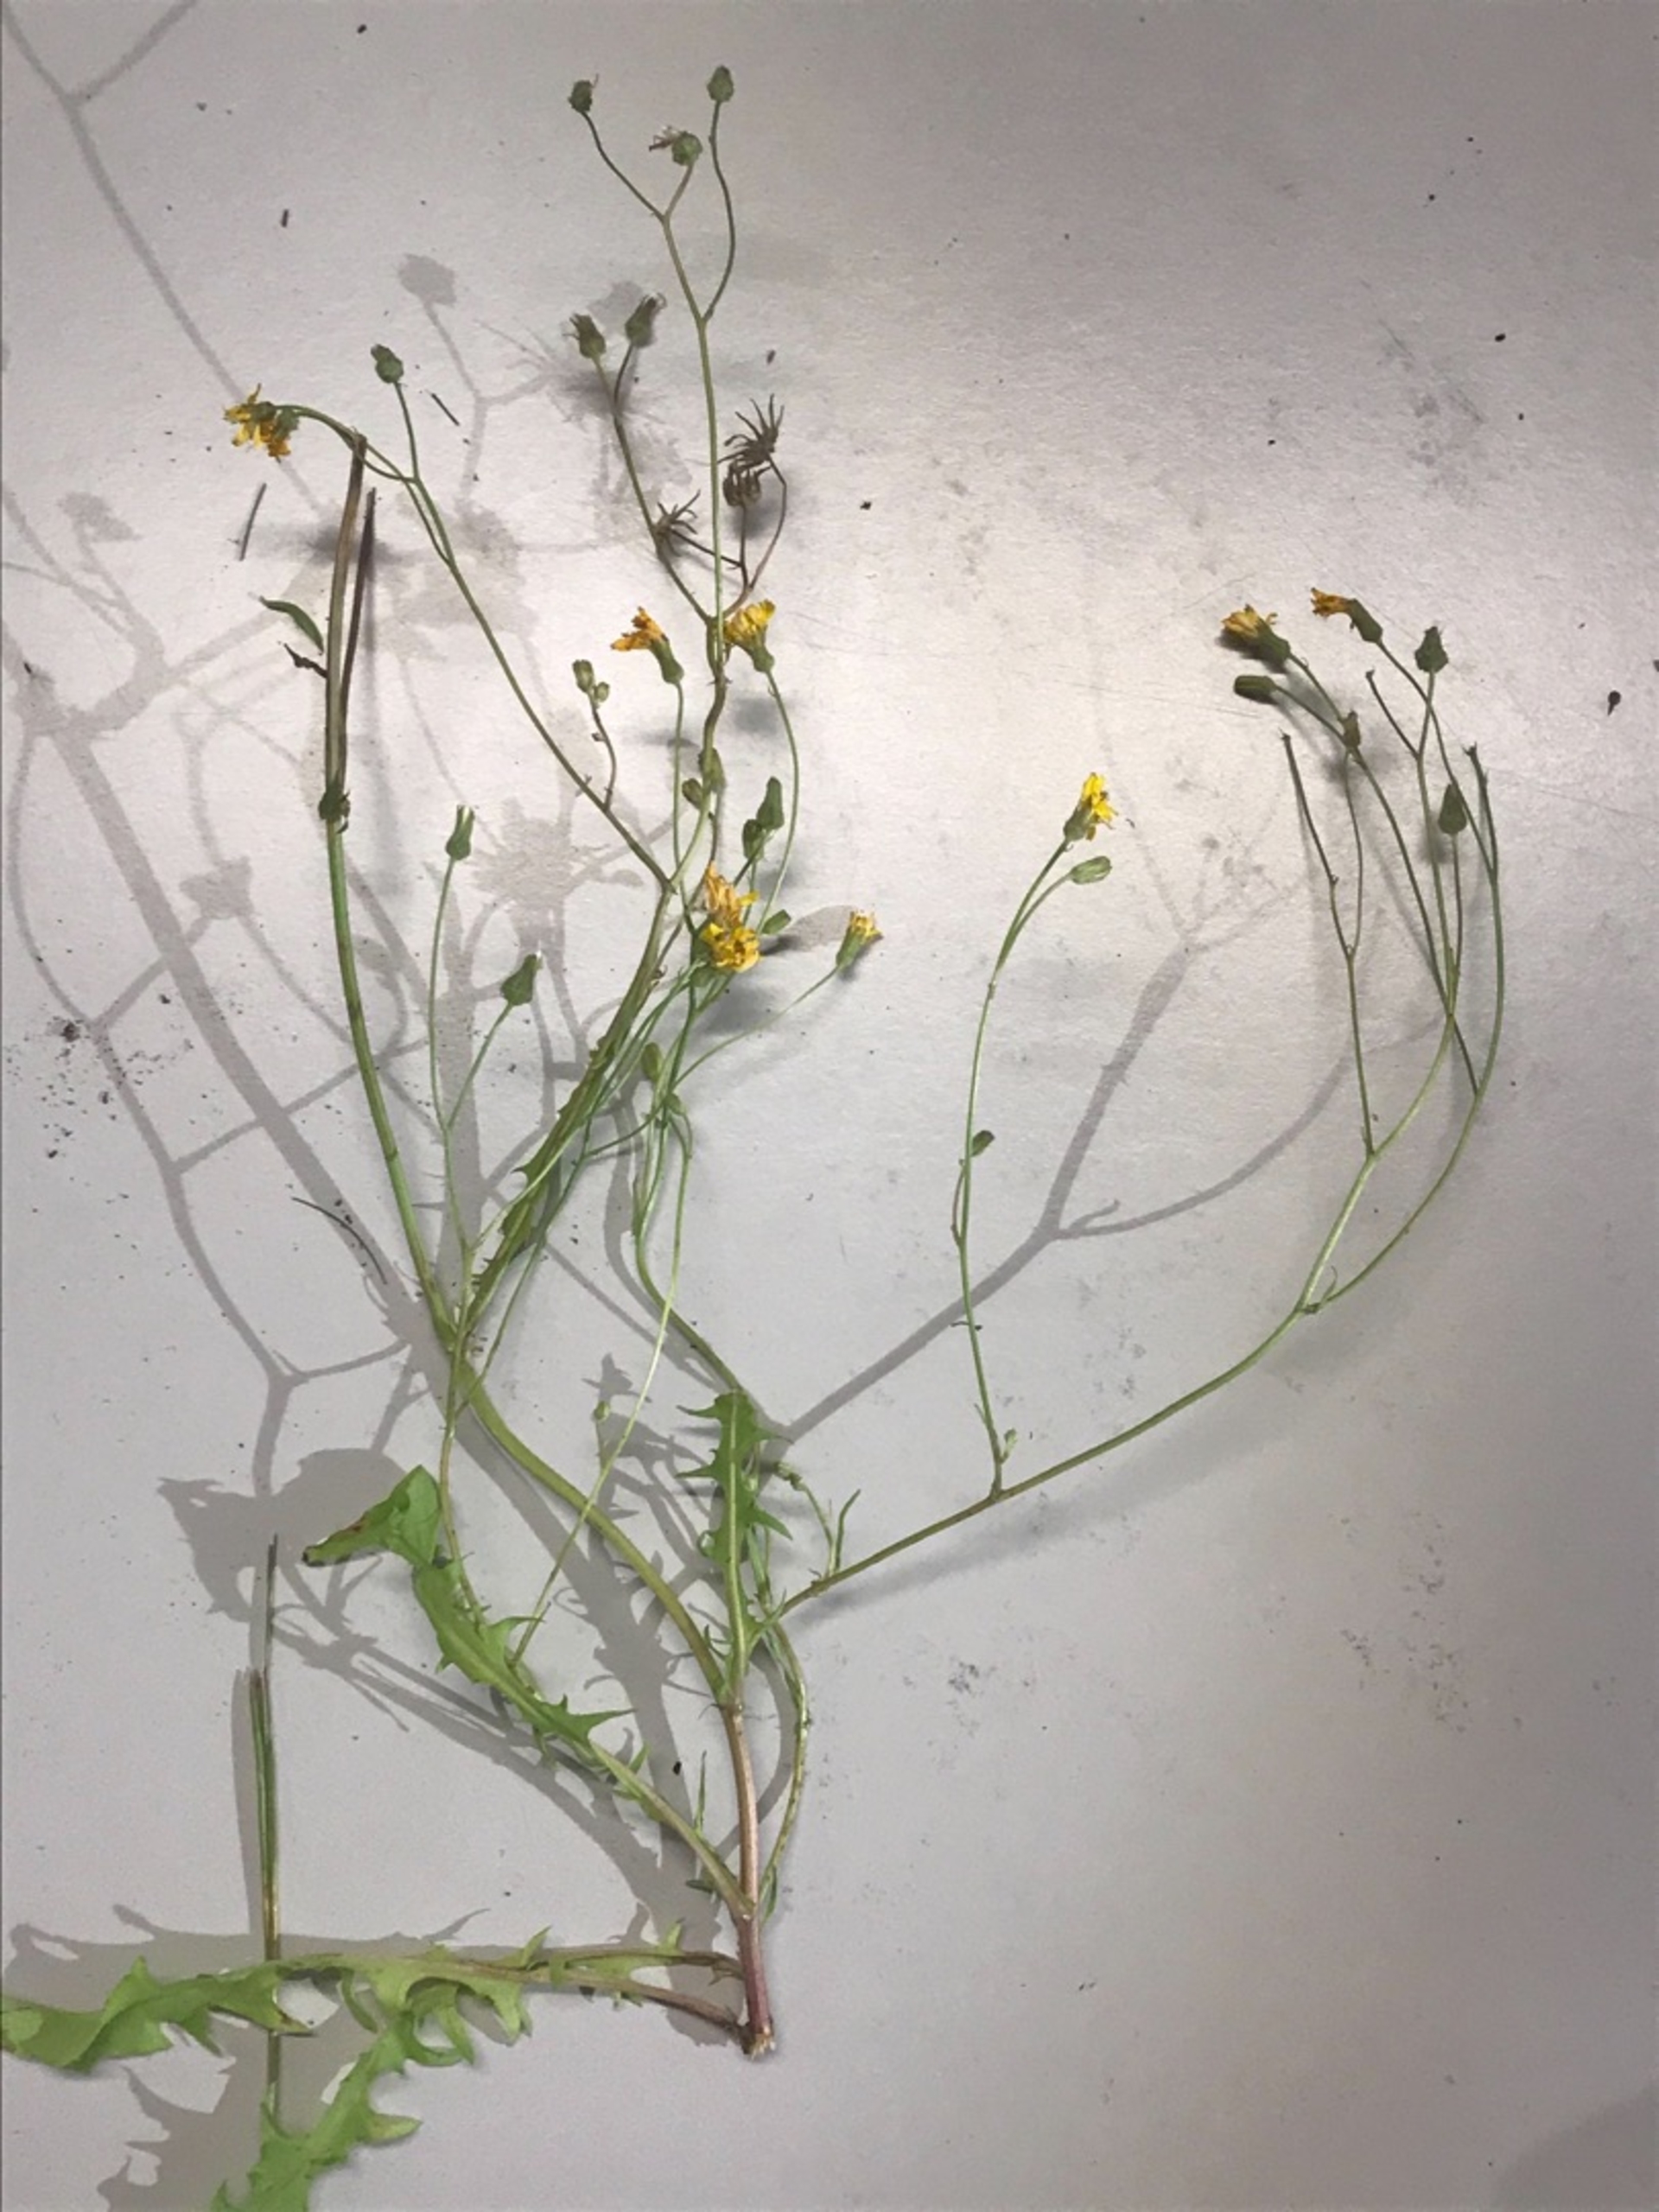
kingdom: Plantae
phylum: Tracheophyta
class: Magnoliopsida
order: Asterales
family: Asteraceae
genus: Crepis
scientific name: Crepis capillaris
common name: Grøn høgeskæg
